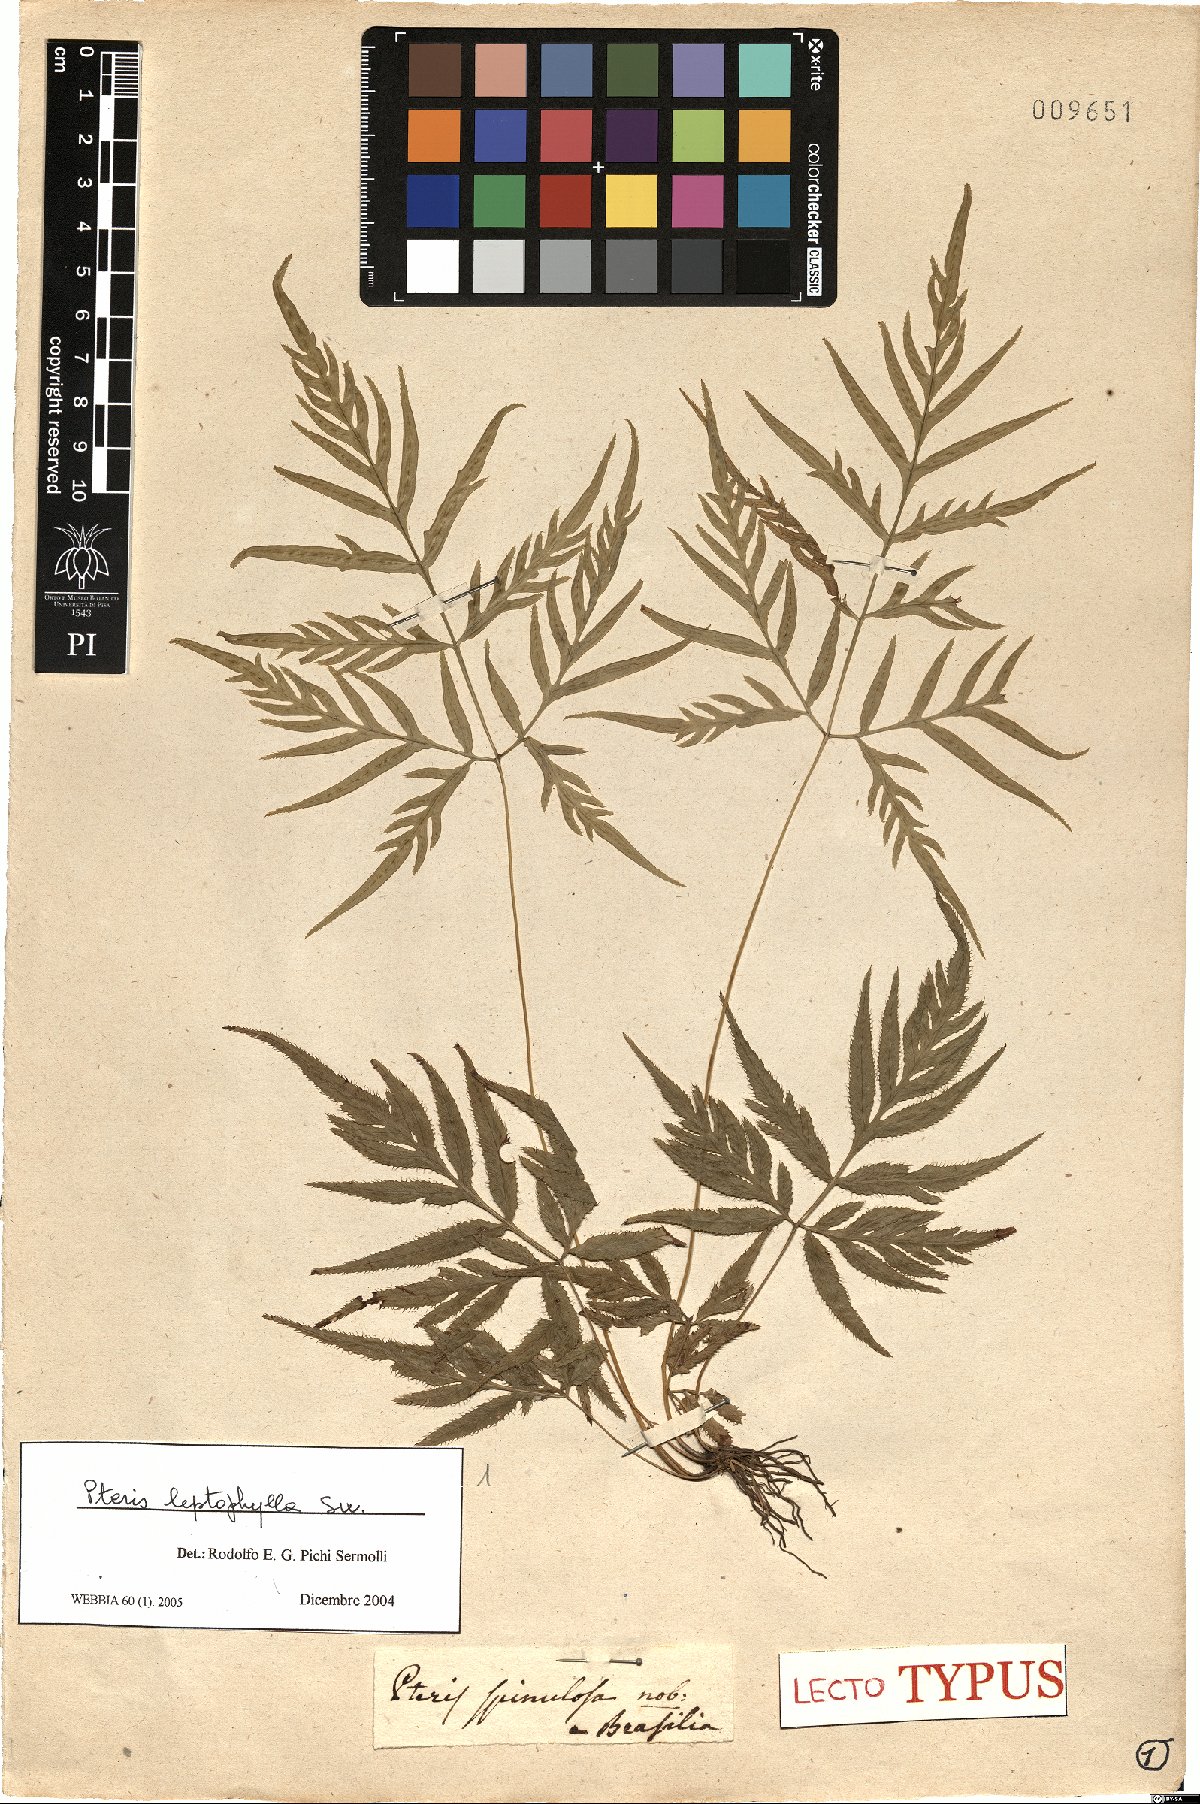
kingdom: Plantae
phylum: Tracheophyta
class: Polypodiopsida
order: Polypodiales
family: Pteridaceae
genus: Pteris
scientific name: Pteris leptophylla
